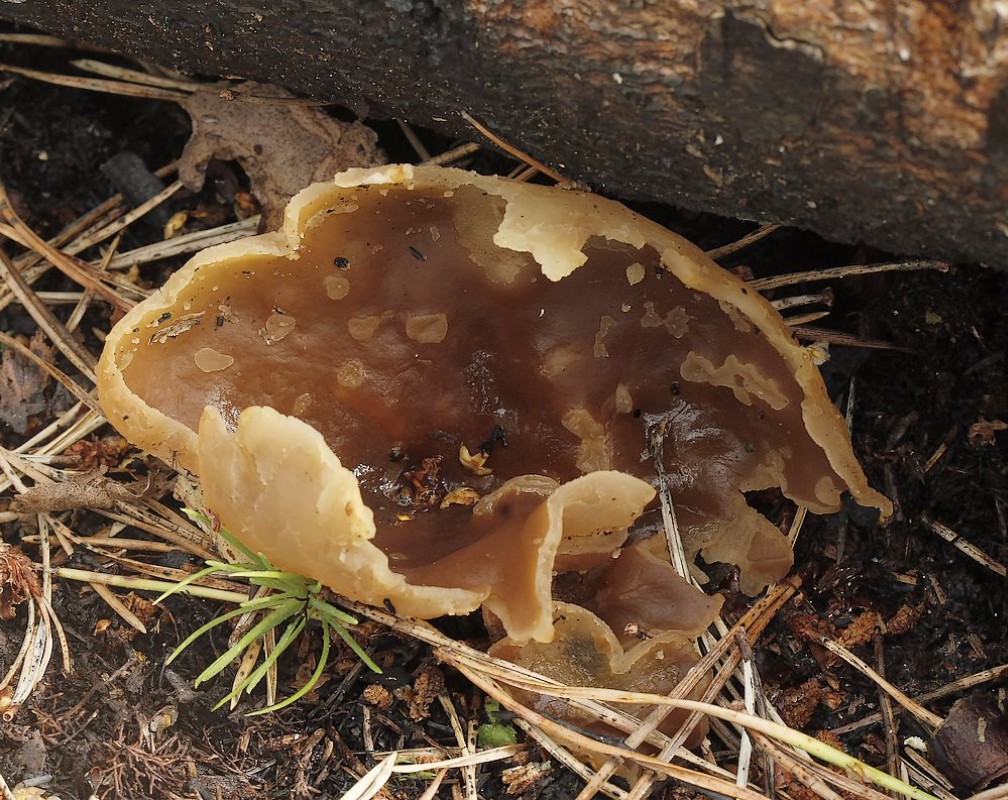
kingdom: Fungi
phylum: Ascomycota
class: Pezizomycetes
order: Pezizales
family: Pezizaceae
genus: Peziza
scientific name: Peziza
